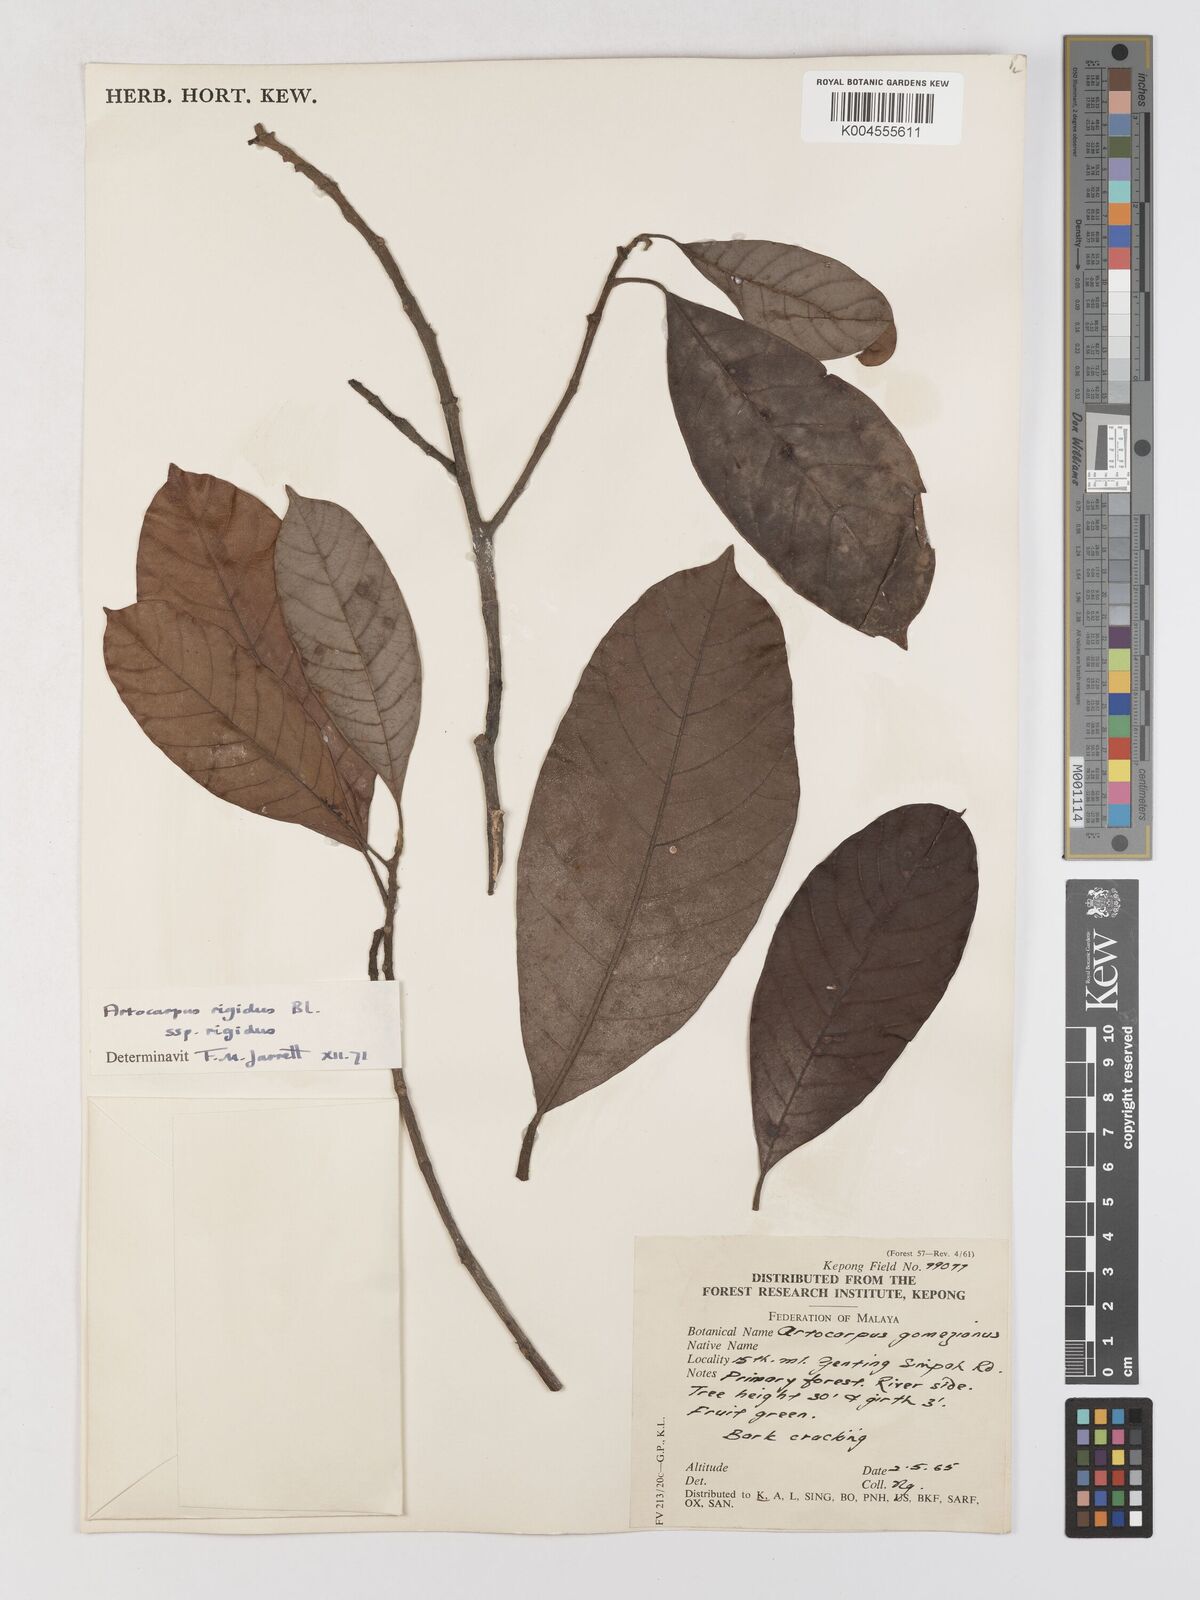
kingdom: Plantae
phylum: Tracheophyta
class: Magnoliopsida
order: Rosales
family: Moraceae
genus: Artocarpus
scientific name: Artocarpus
